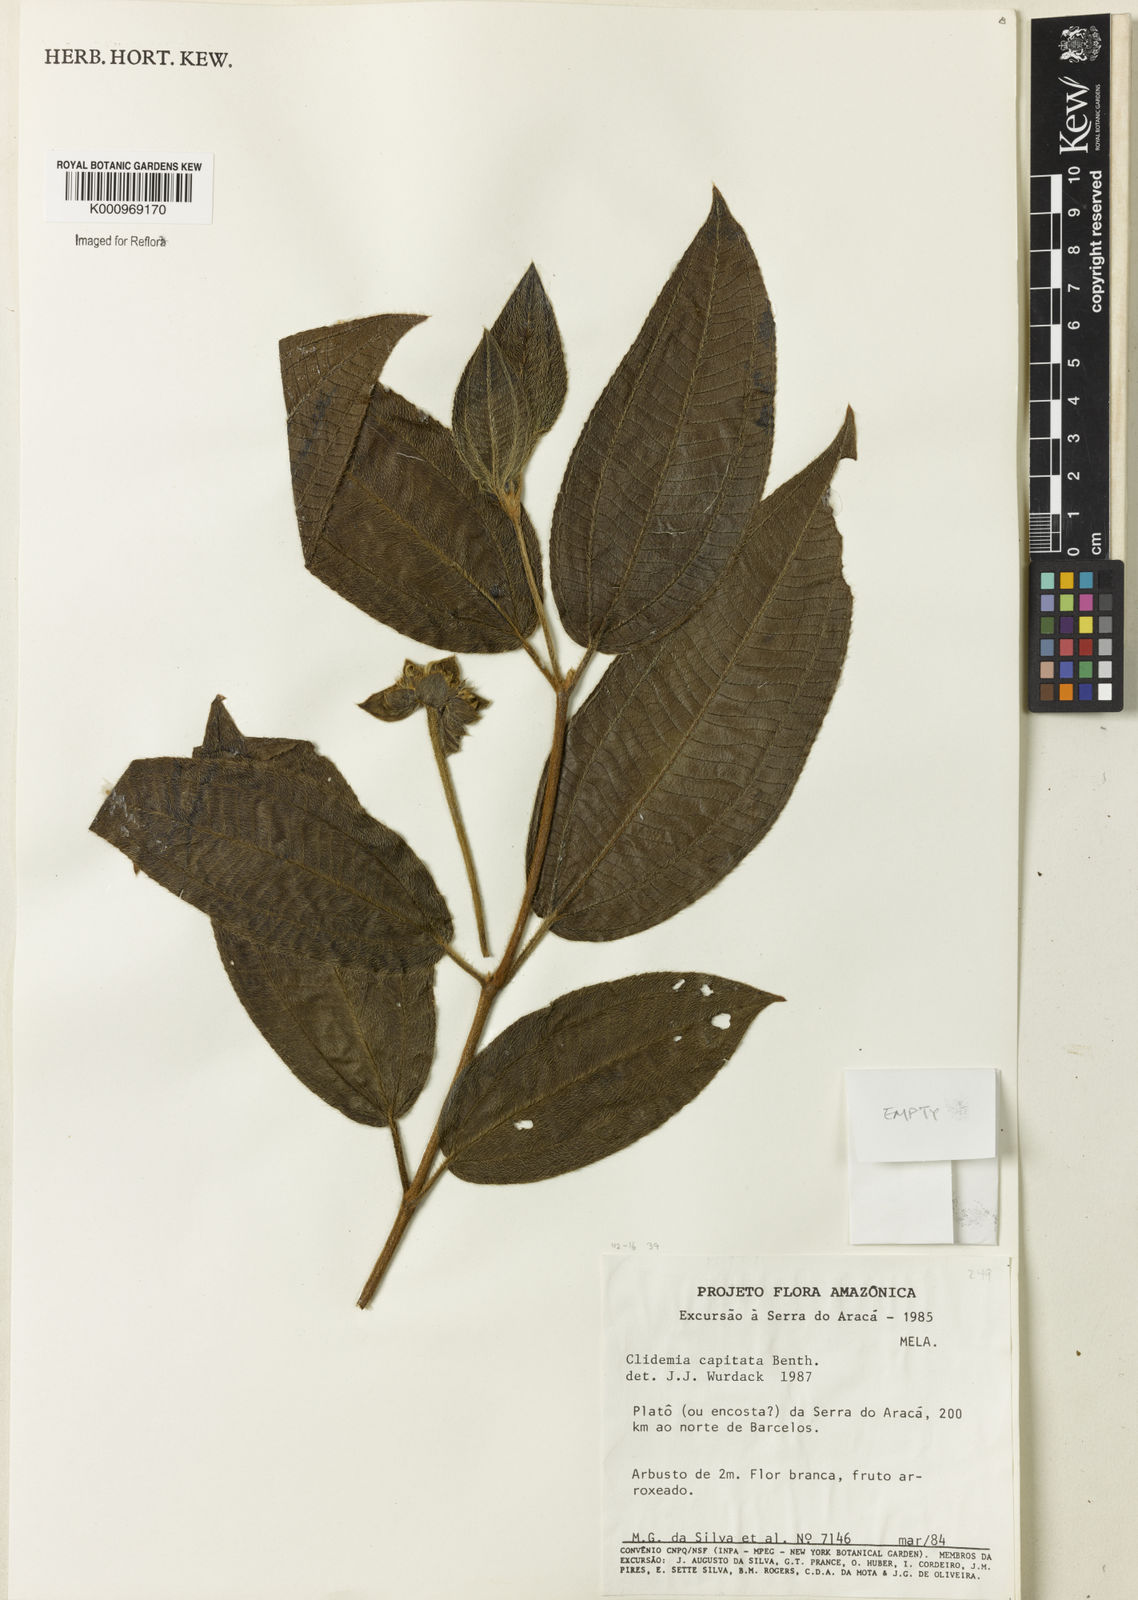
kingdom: Plantae
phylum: Tracheophyta
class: Magnoliopsida
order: Myrtales
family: Melastomataceae
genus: Miconia
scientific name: Miconia benthamii
